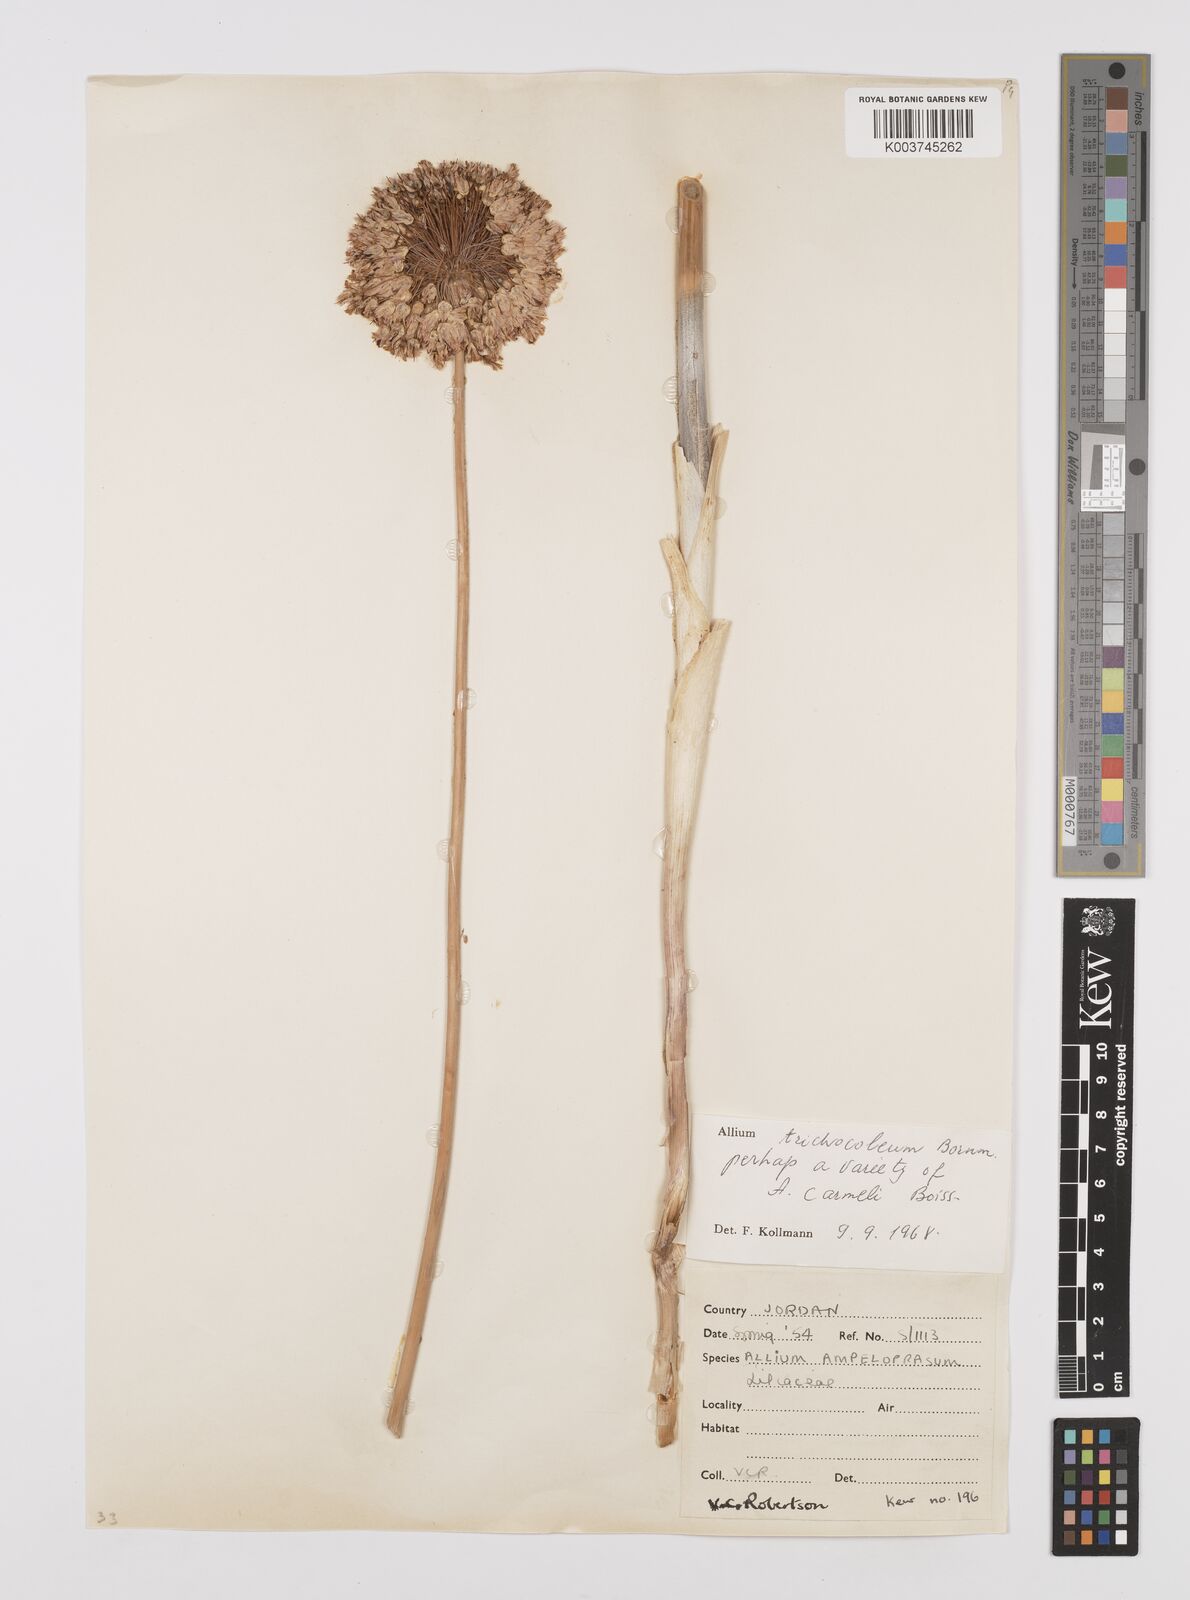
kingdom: Plantae
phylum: Tracheophyta
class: Liliopsida
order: Asparagales
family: Amaryllidaceae
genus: Allium
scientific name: Allium carmeli
